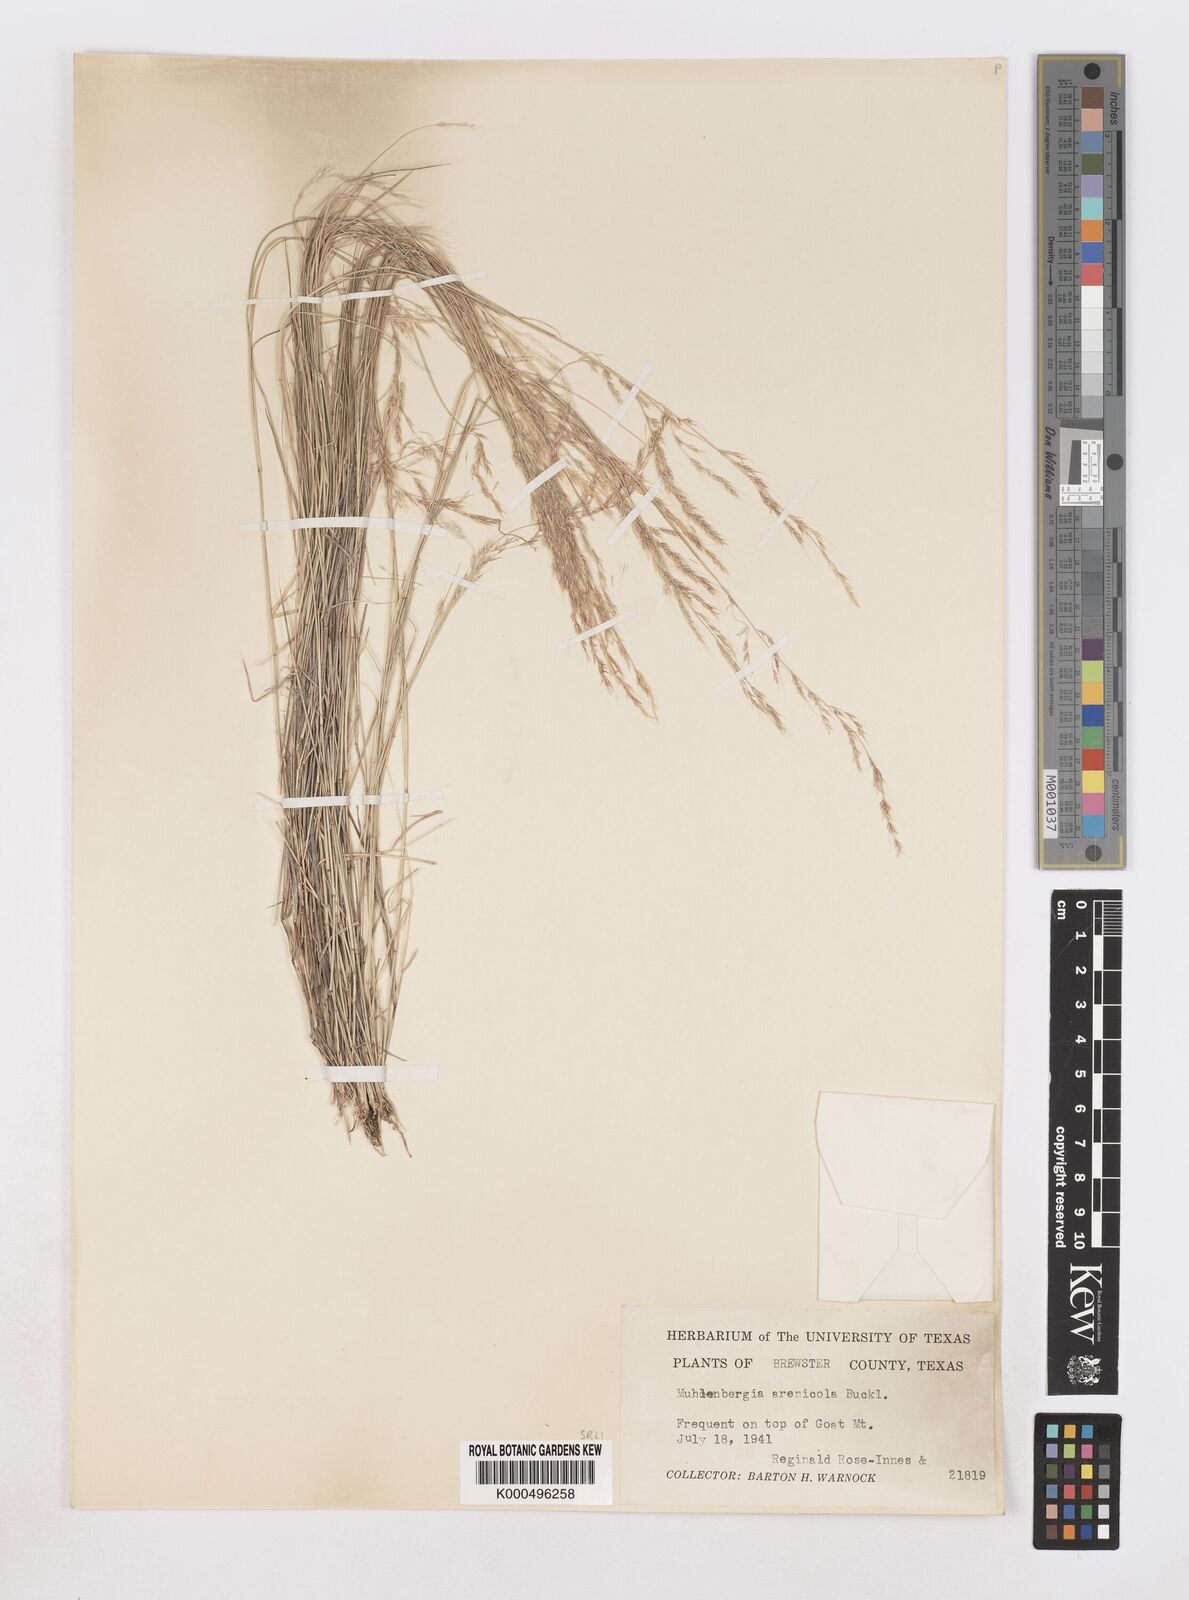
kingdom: Plantae
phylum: Tracheophyta
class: Liliopsida
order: Poales
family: Poaceae
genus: Muhlenbergia
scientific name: Muhlenbergia arenicola
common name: Sand muhly
